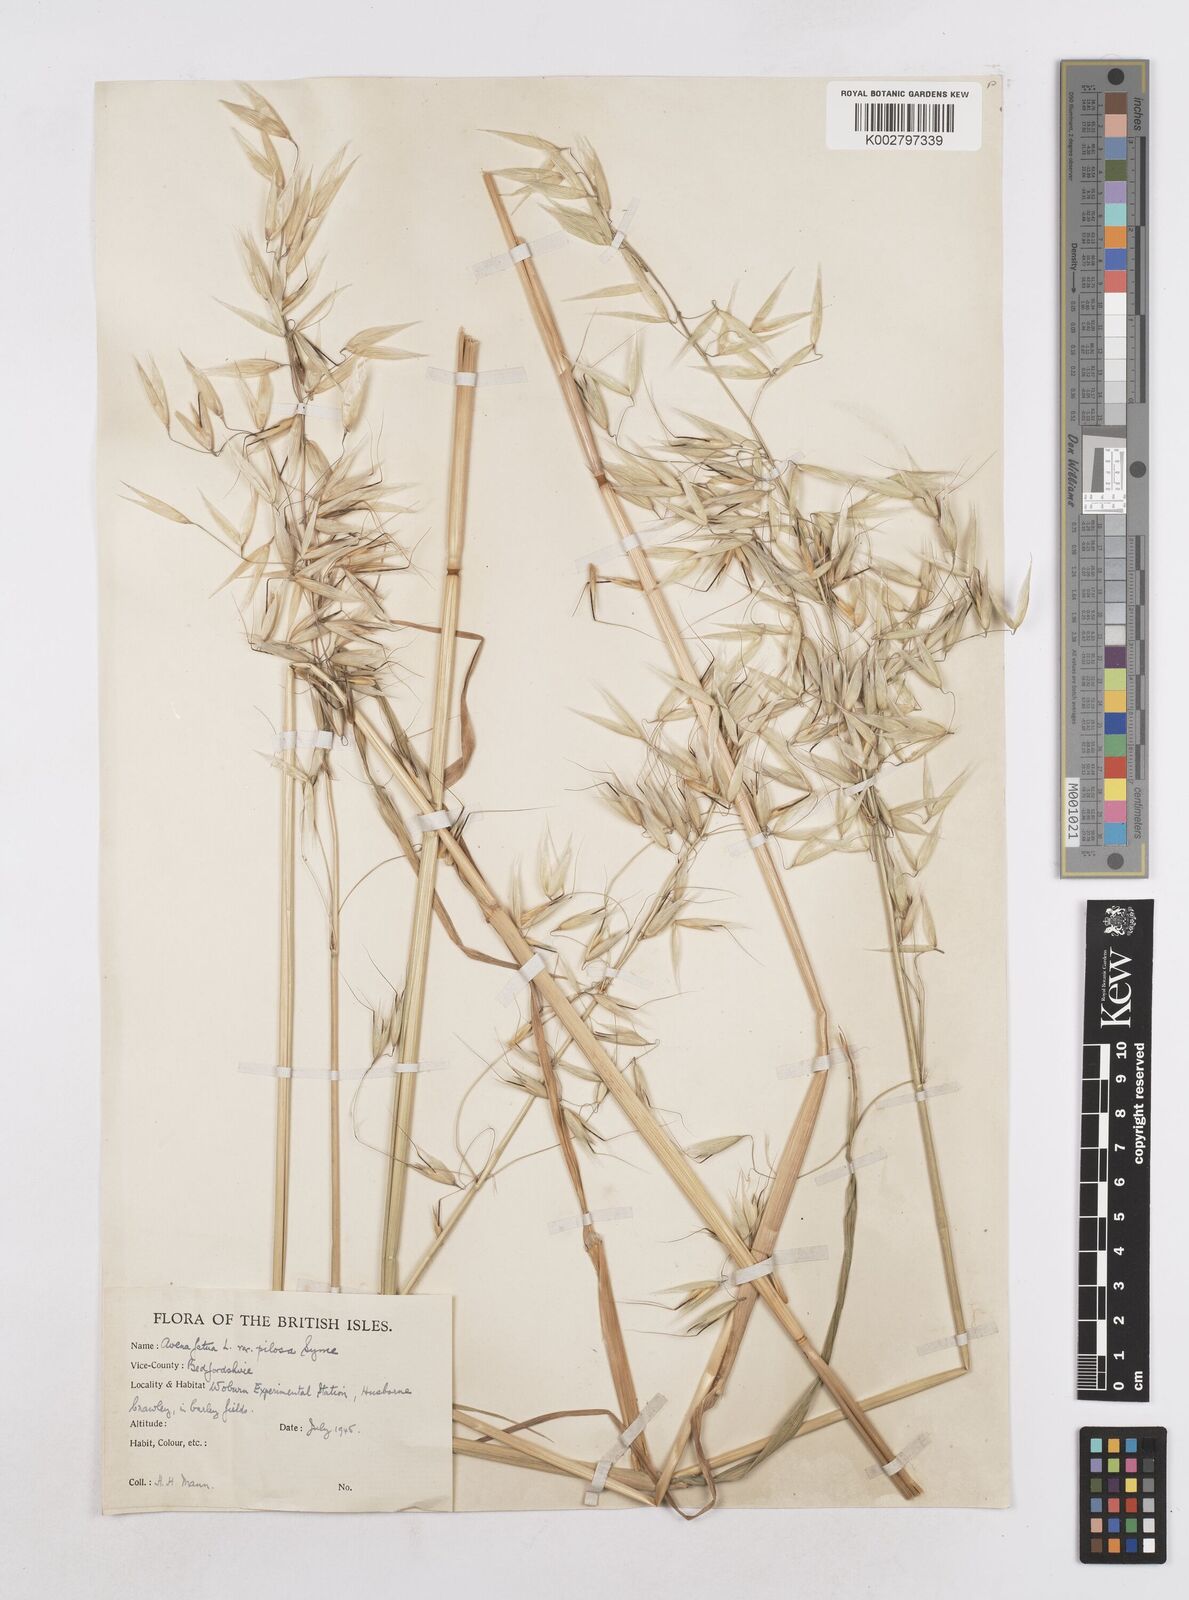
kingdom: Plantae
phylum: Tracheophyta
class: Liliopsida
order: Poales
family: Poaceae
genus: Avena
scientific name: Avena fatua
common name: Wild oat
